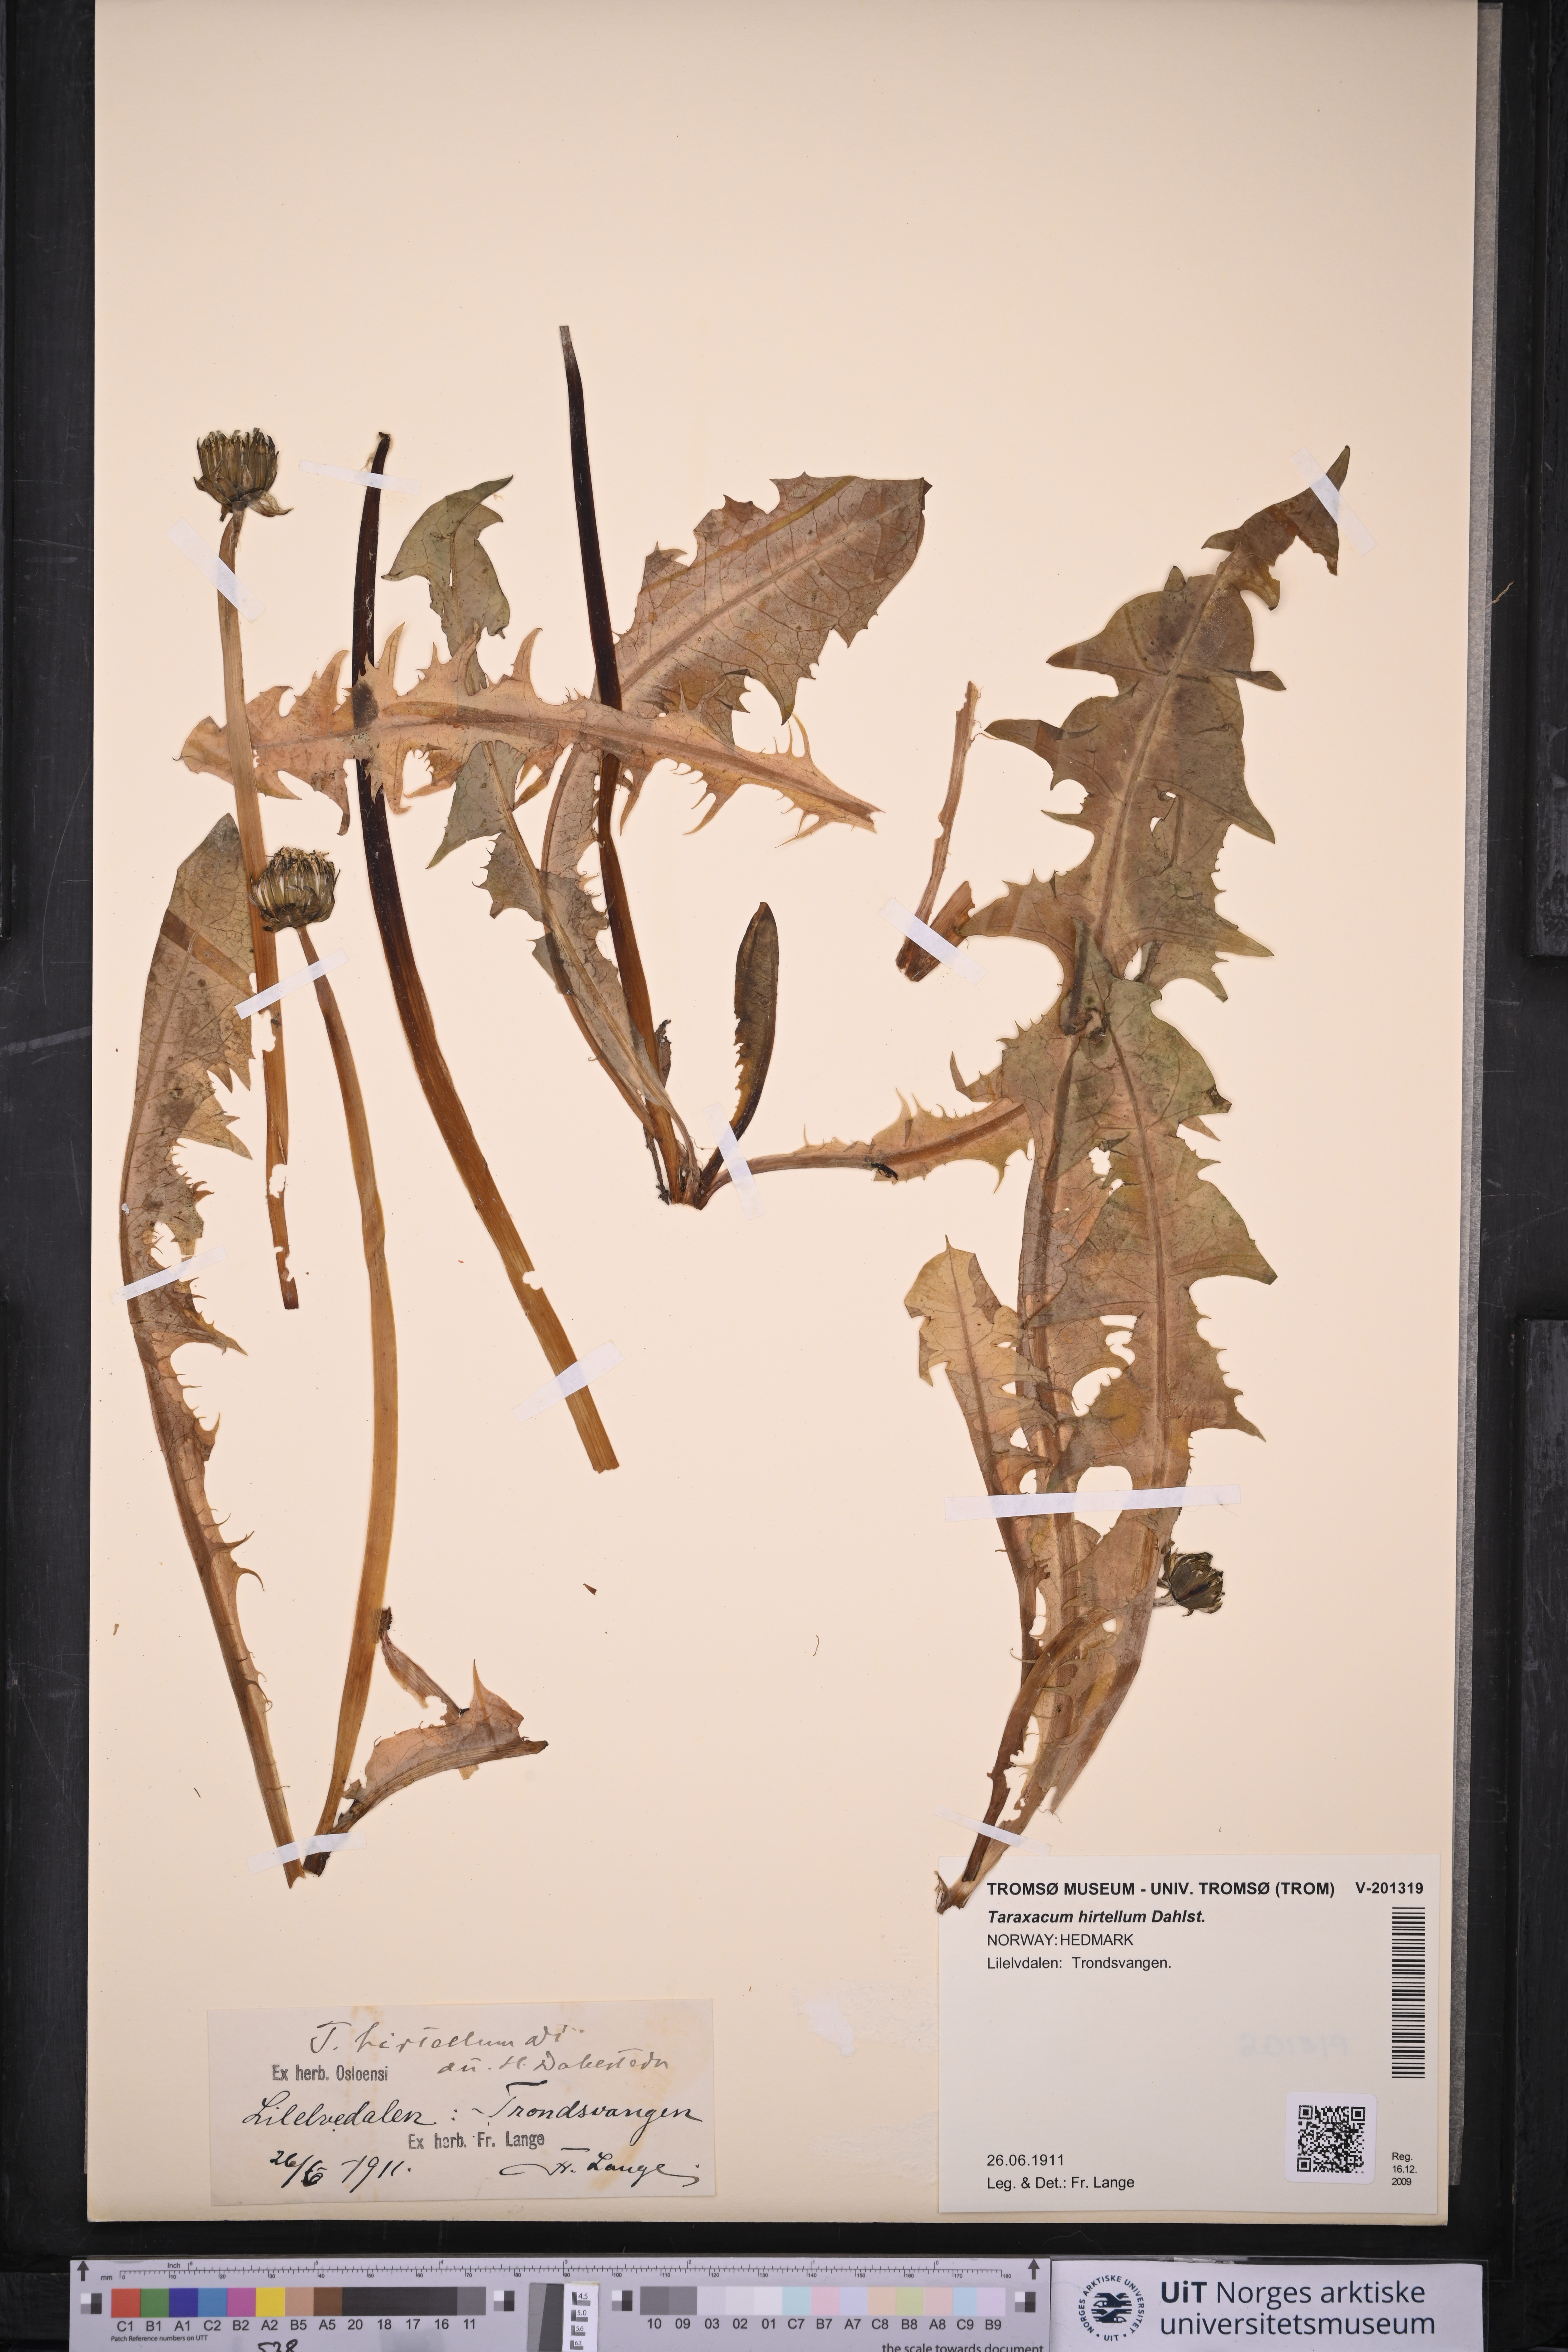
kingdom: Plantae
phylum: Tracheophyta
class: Magnoliopsida
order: Asterales
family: Asteraceae
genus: Taraxacum
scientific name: Taraxacum hirtellum
